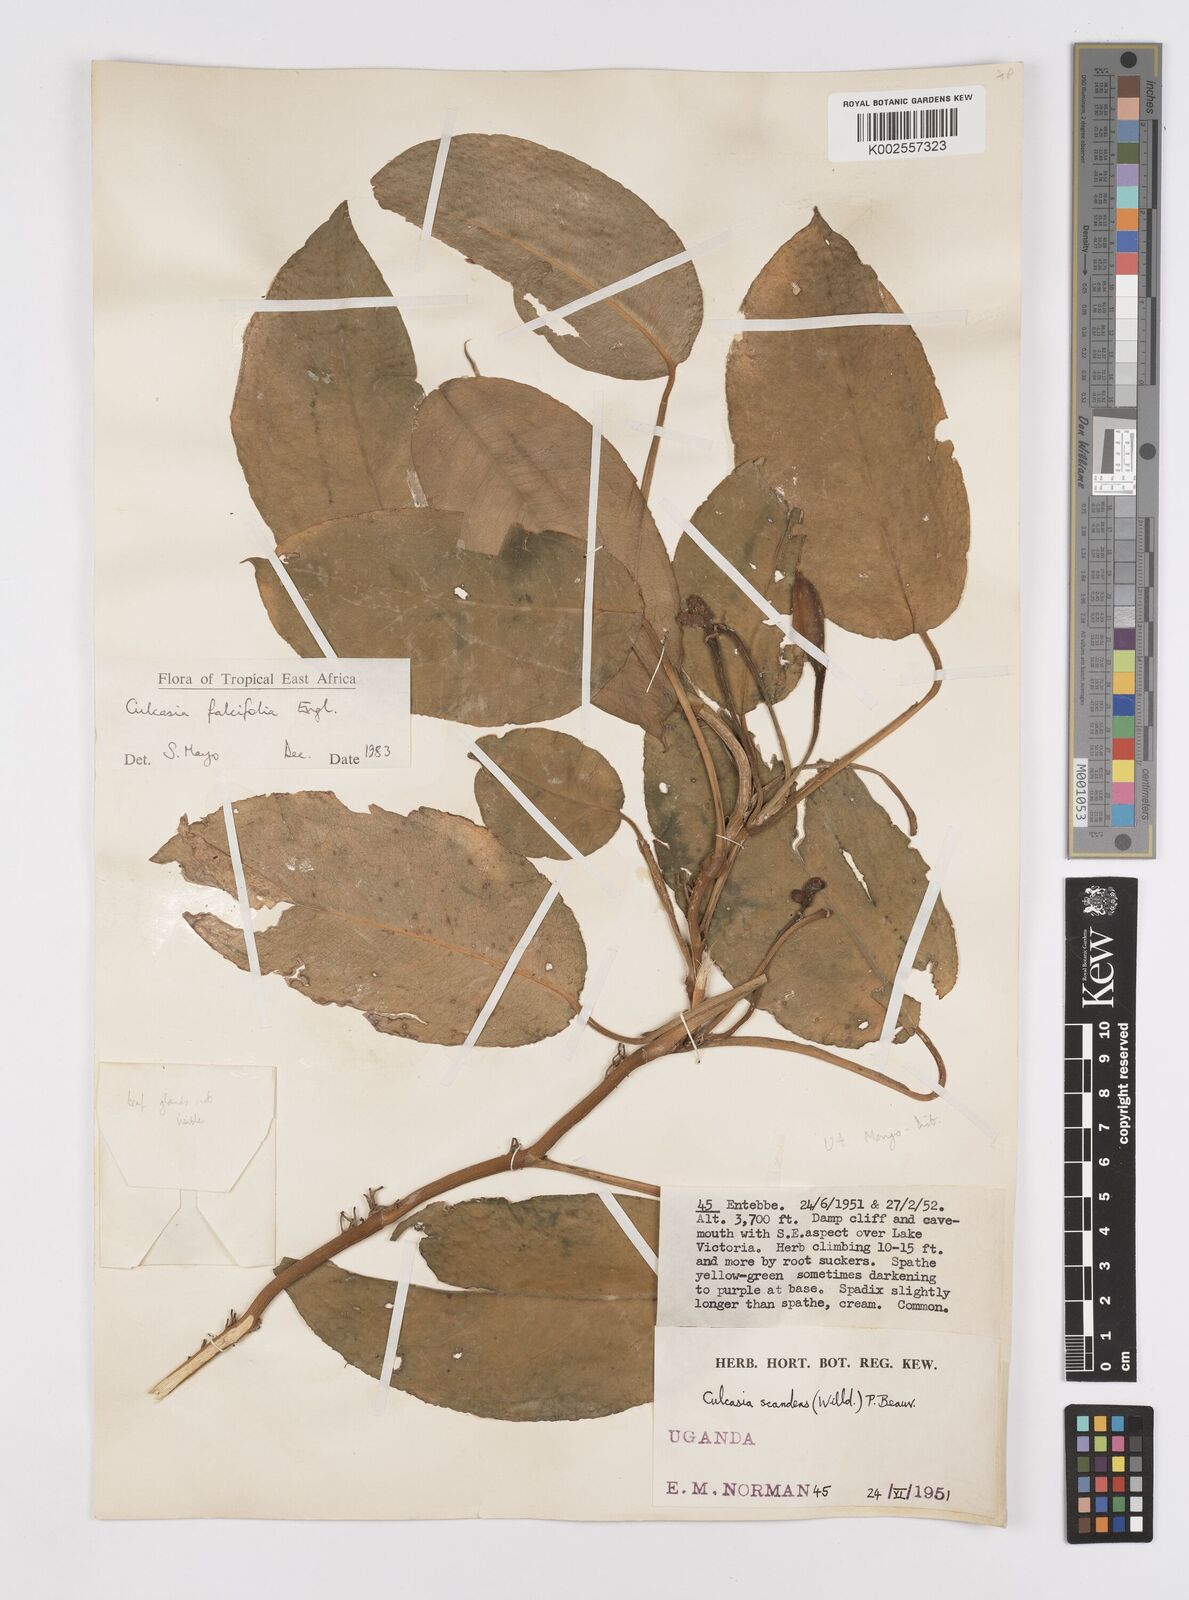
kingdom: Plantae
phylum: Tracheophyta
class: Liliopsida
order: Alismatales
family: Araceae
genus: Culcasia
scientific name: Culcasia falcifolia
